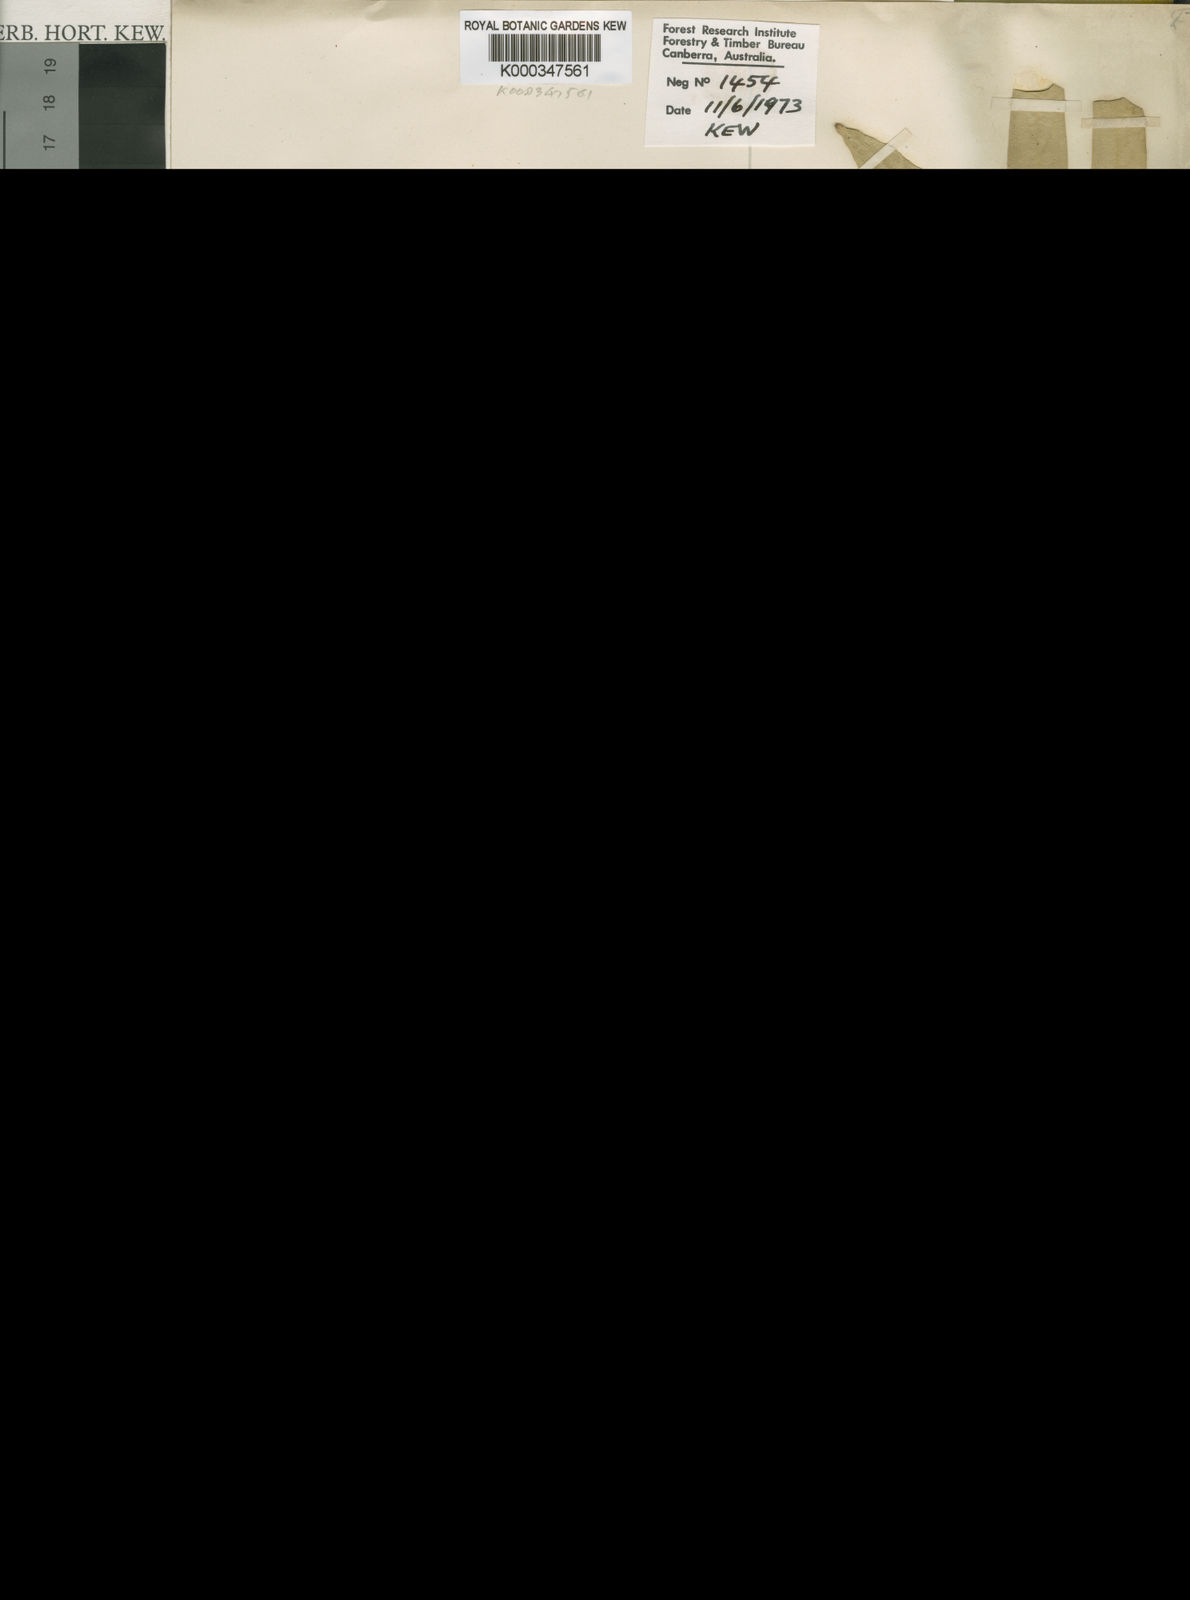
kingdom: Plantae
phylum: Tracheophyta
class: Magnoliopsida
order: Myrtales
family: Myrtaceae
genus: Eucalyptus
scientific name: Eucalyptus ochrophloia
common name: Yapunyah
